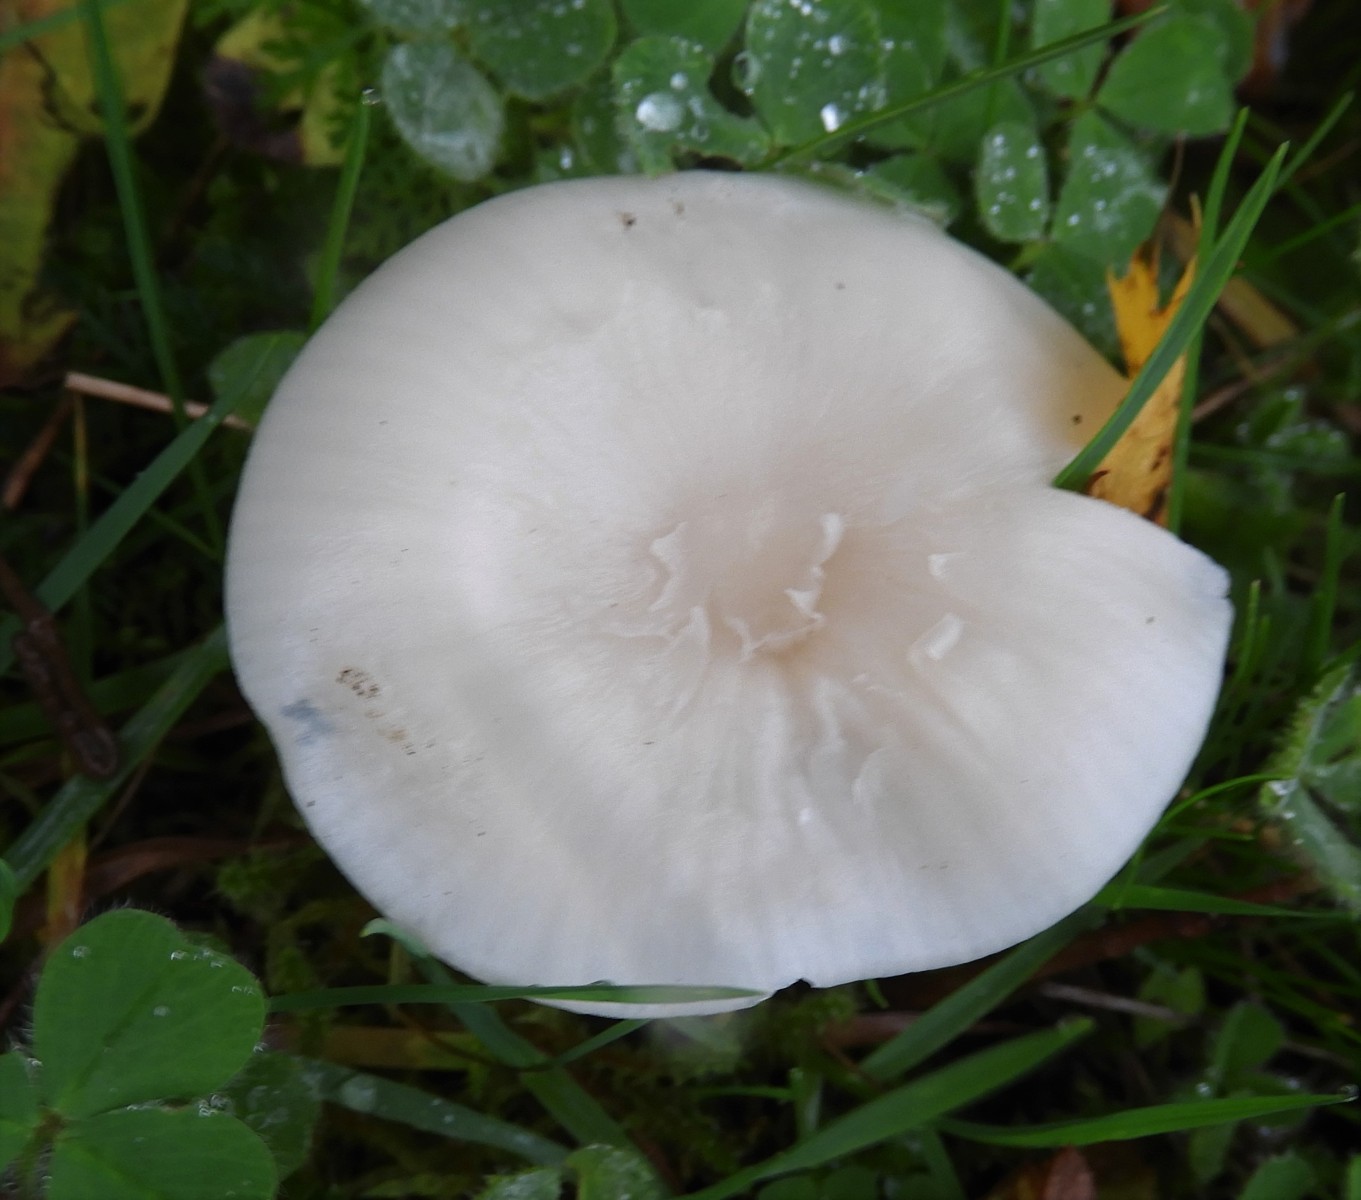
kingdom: Fungi
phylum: Basidiomycota
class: Agaricomycetes
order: Agaricales
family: Hygrophoraceae
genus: Cuphophyllus
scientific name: Cuphophyllus virgineus
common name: snehvid vokshat
